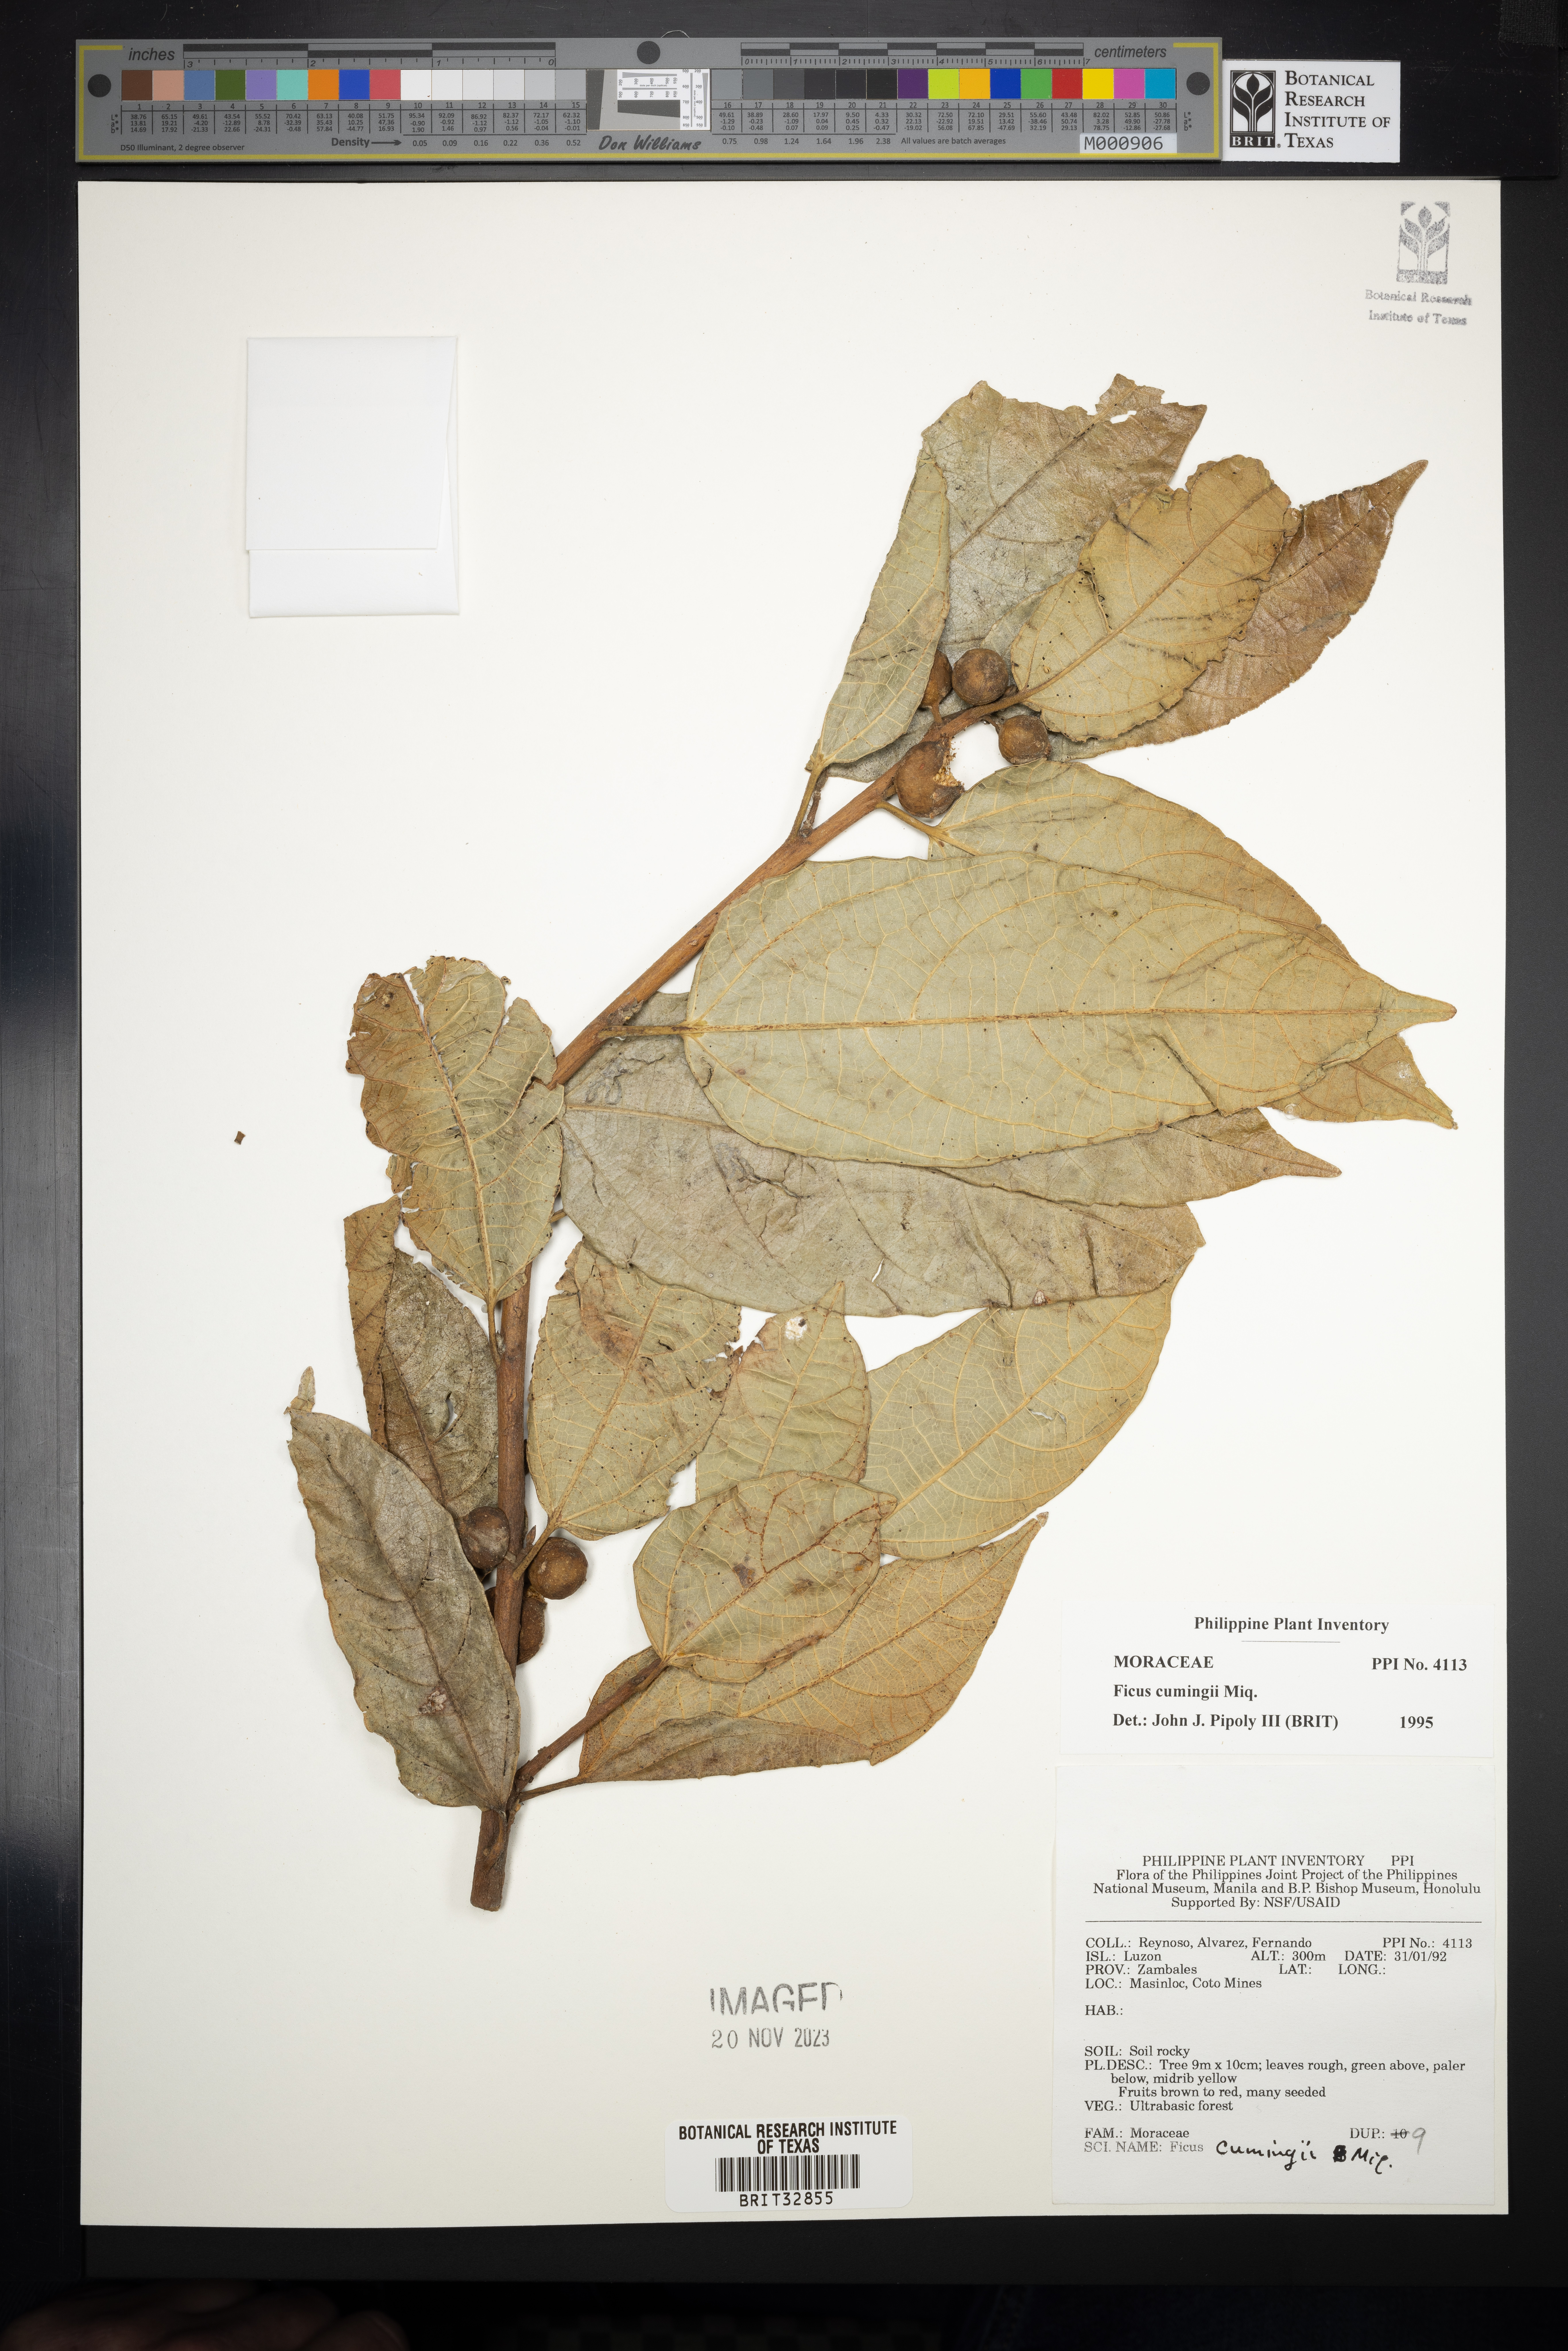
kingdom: Plantae
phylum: Tracheophyta
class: Magnoliopsida
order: Rosales
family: Moraceae
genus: Ficus
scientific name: Ficus cumingii
